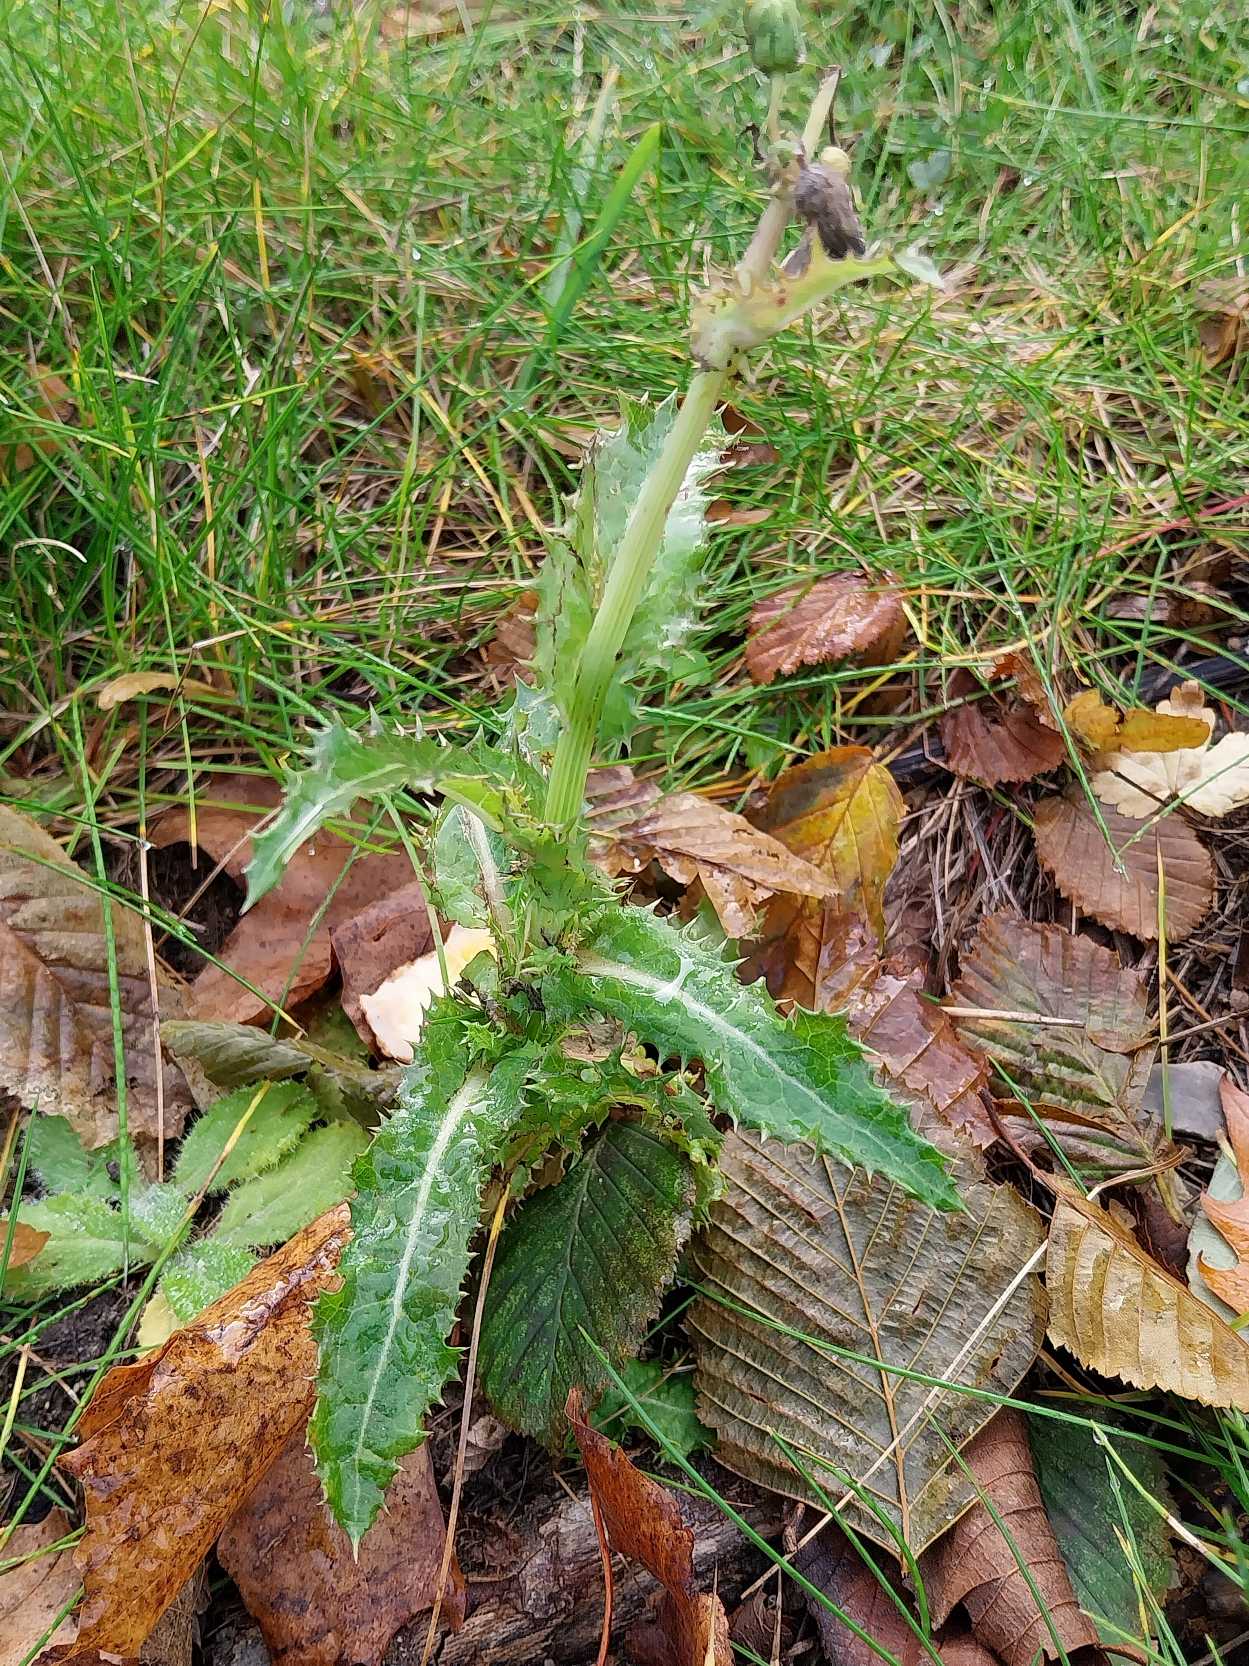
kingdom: Plantae
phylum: Tracheophyta
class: Magnoliopsida
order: Asterales
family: Asteraceae
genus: Sonchus
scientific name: Sonchus asper
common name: Ru svinemælk
